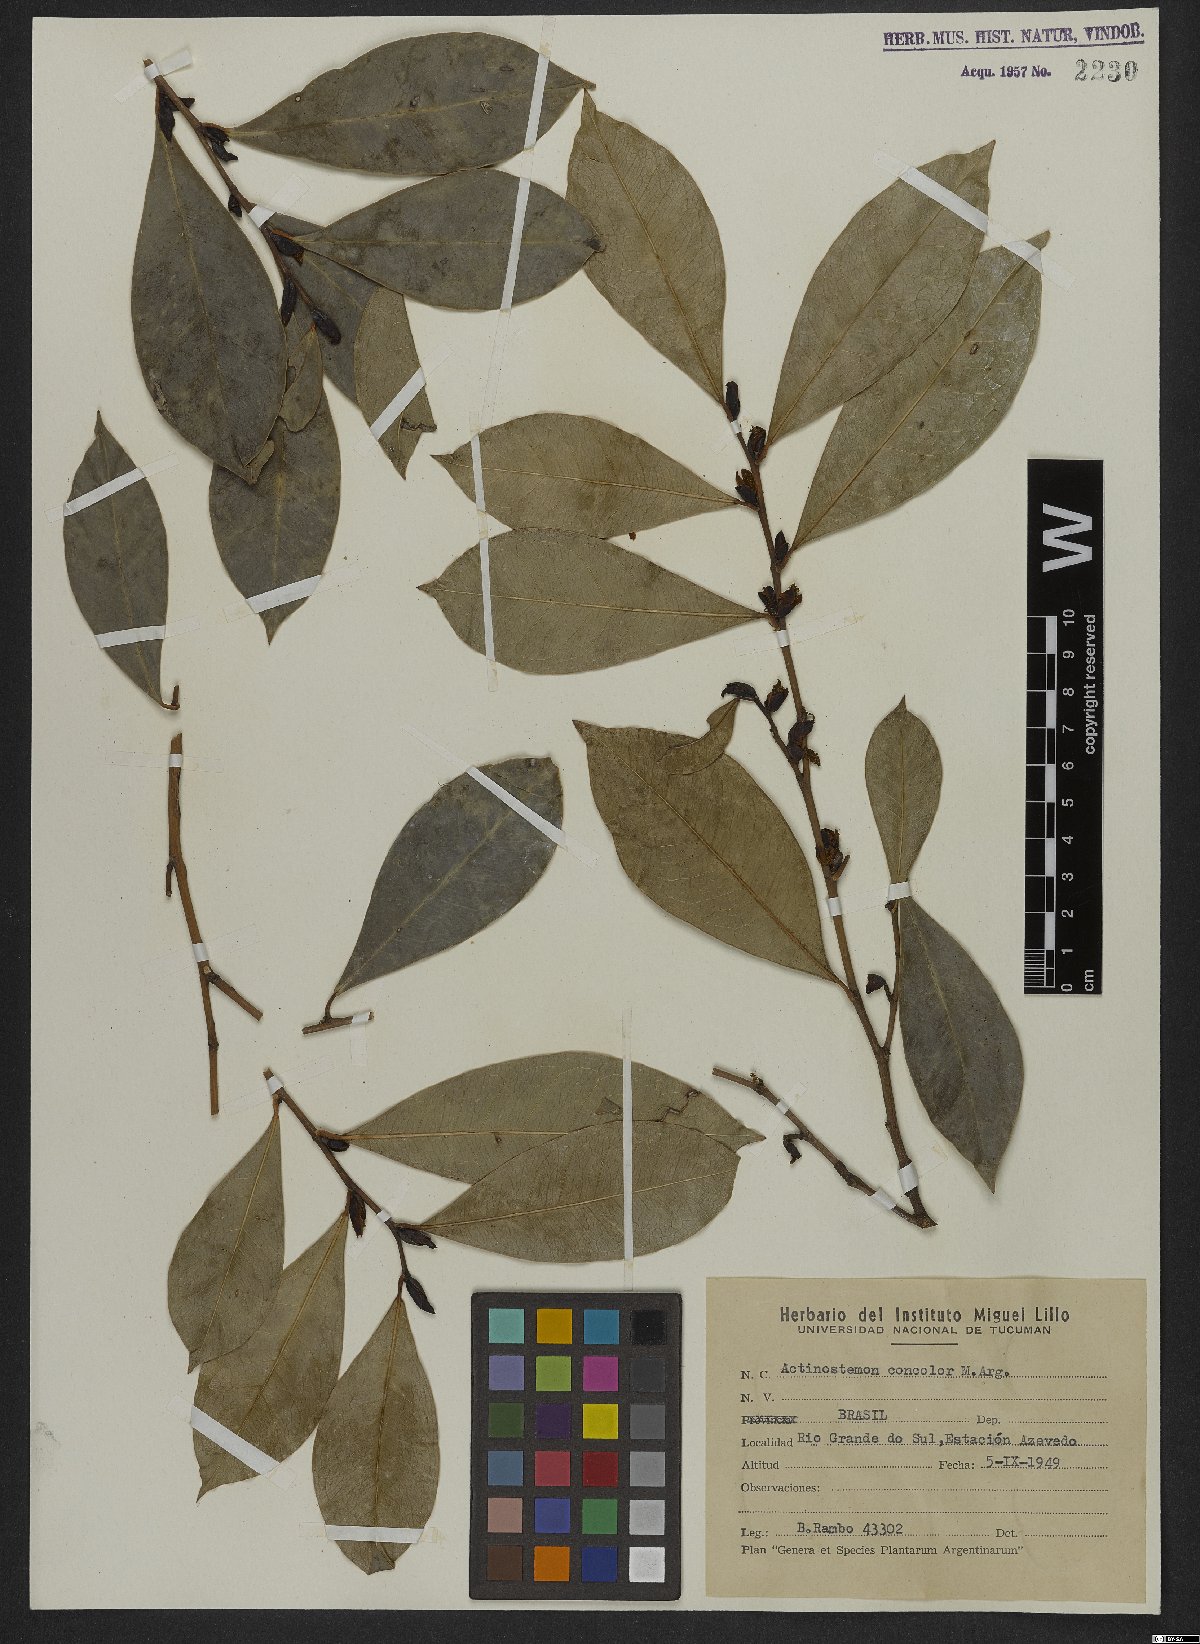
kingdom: Plantae
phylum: Tracheophyta
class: Magnoliopsida
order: Malpighiales
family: Euphorbiaceae
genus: Actinostemon
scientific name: Actinostemon concolor
